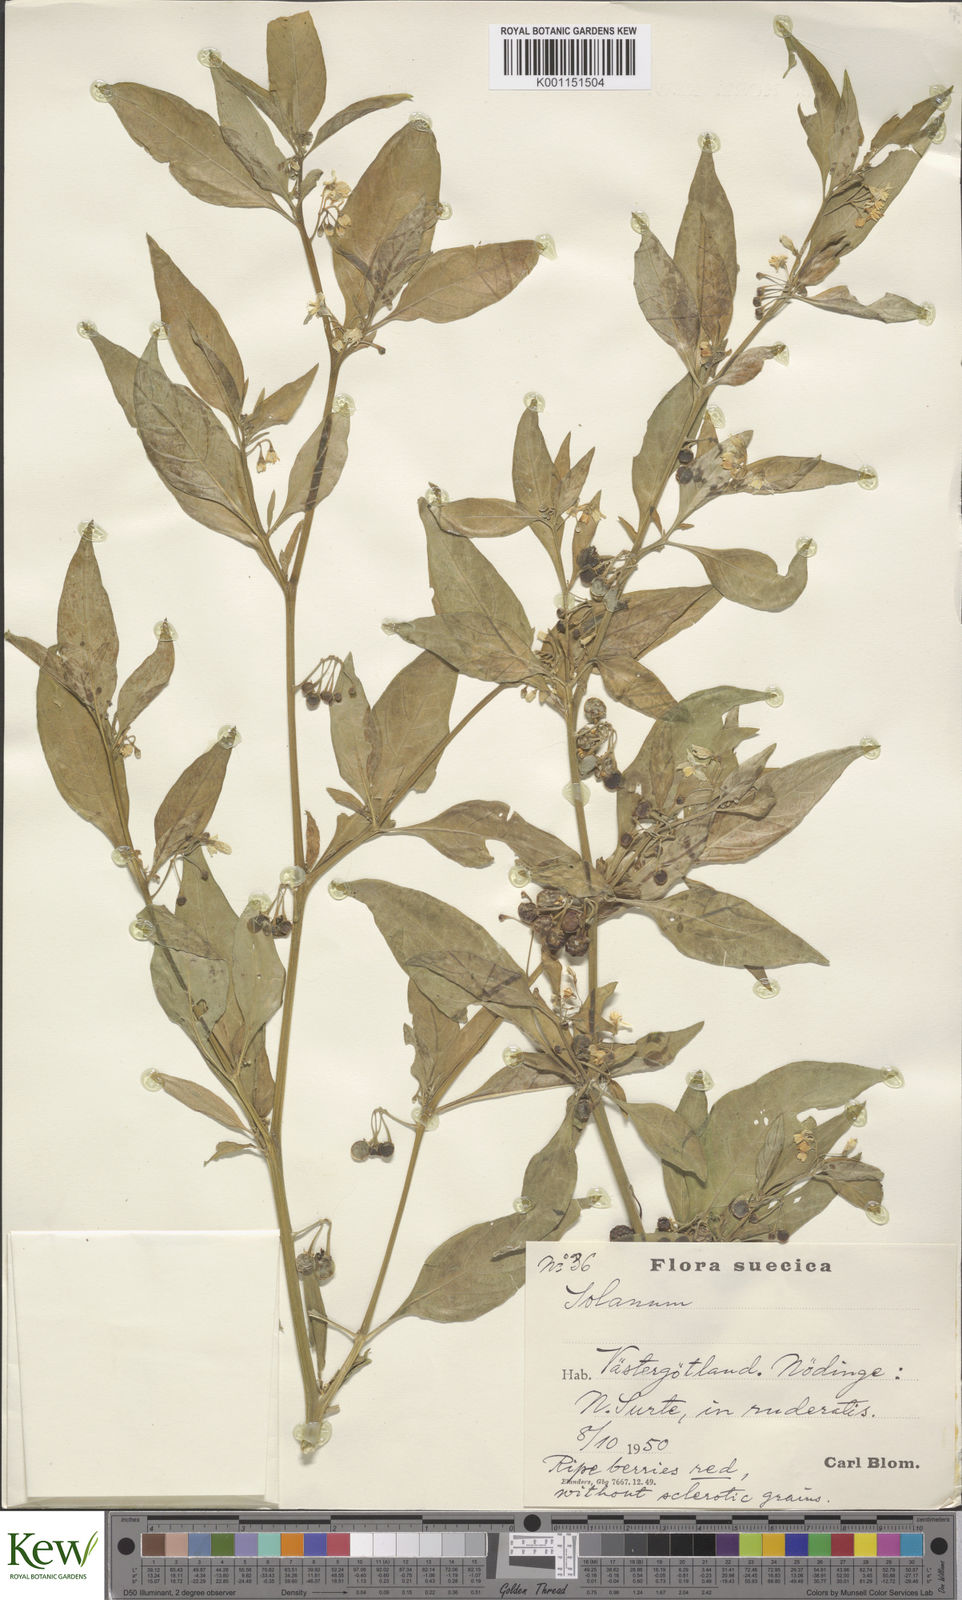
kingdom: Plantae
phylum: Tracheophyta
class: Magnoliopsida
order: Solanales
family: Solanaceae
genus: Solanum
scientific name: Solanum villosum
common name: Red nightshade
